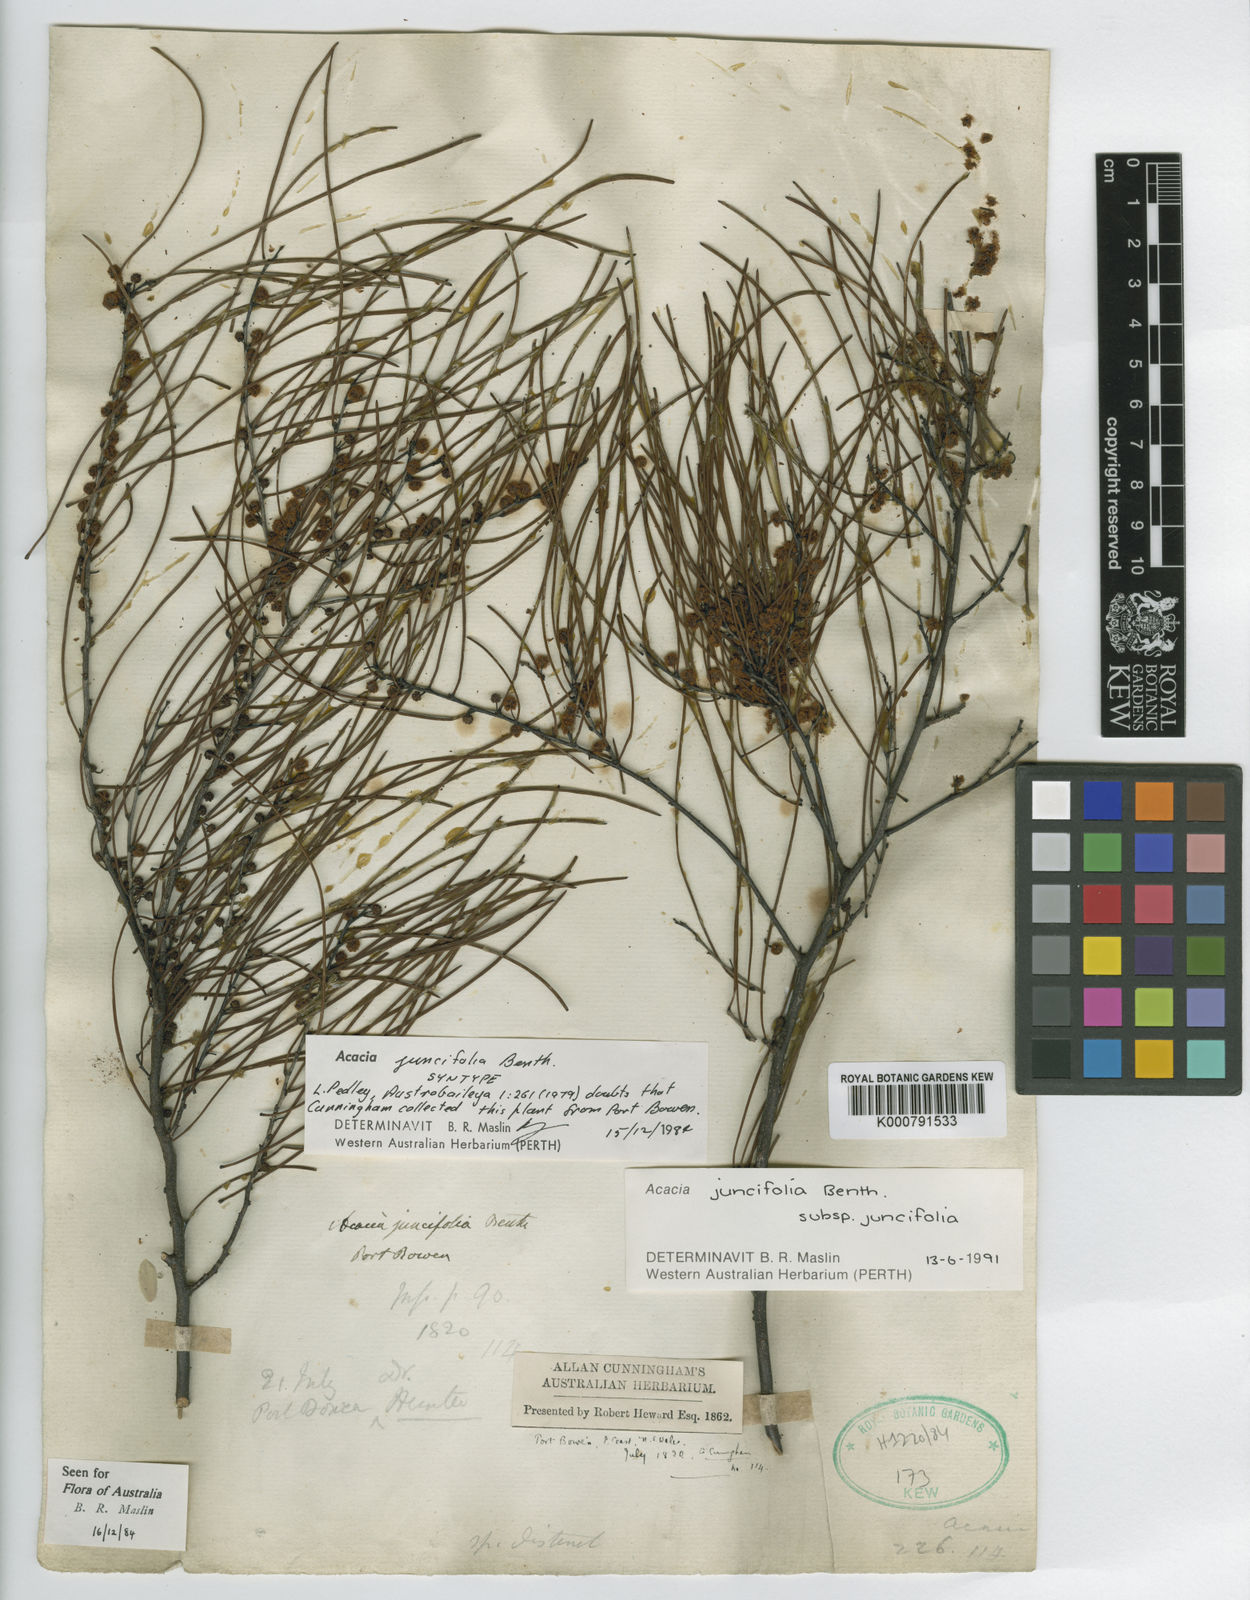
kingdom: Plantae
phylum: Tracheophyta
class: Magnoliopsida
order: Fabales
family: Fabaceae
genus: Acacia
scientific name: Acacia juncifolia
